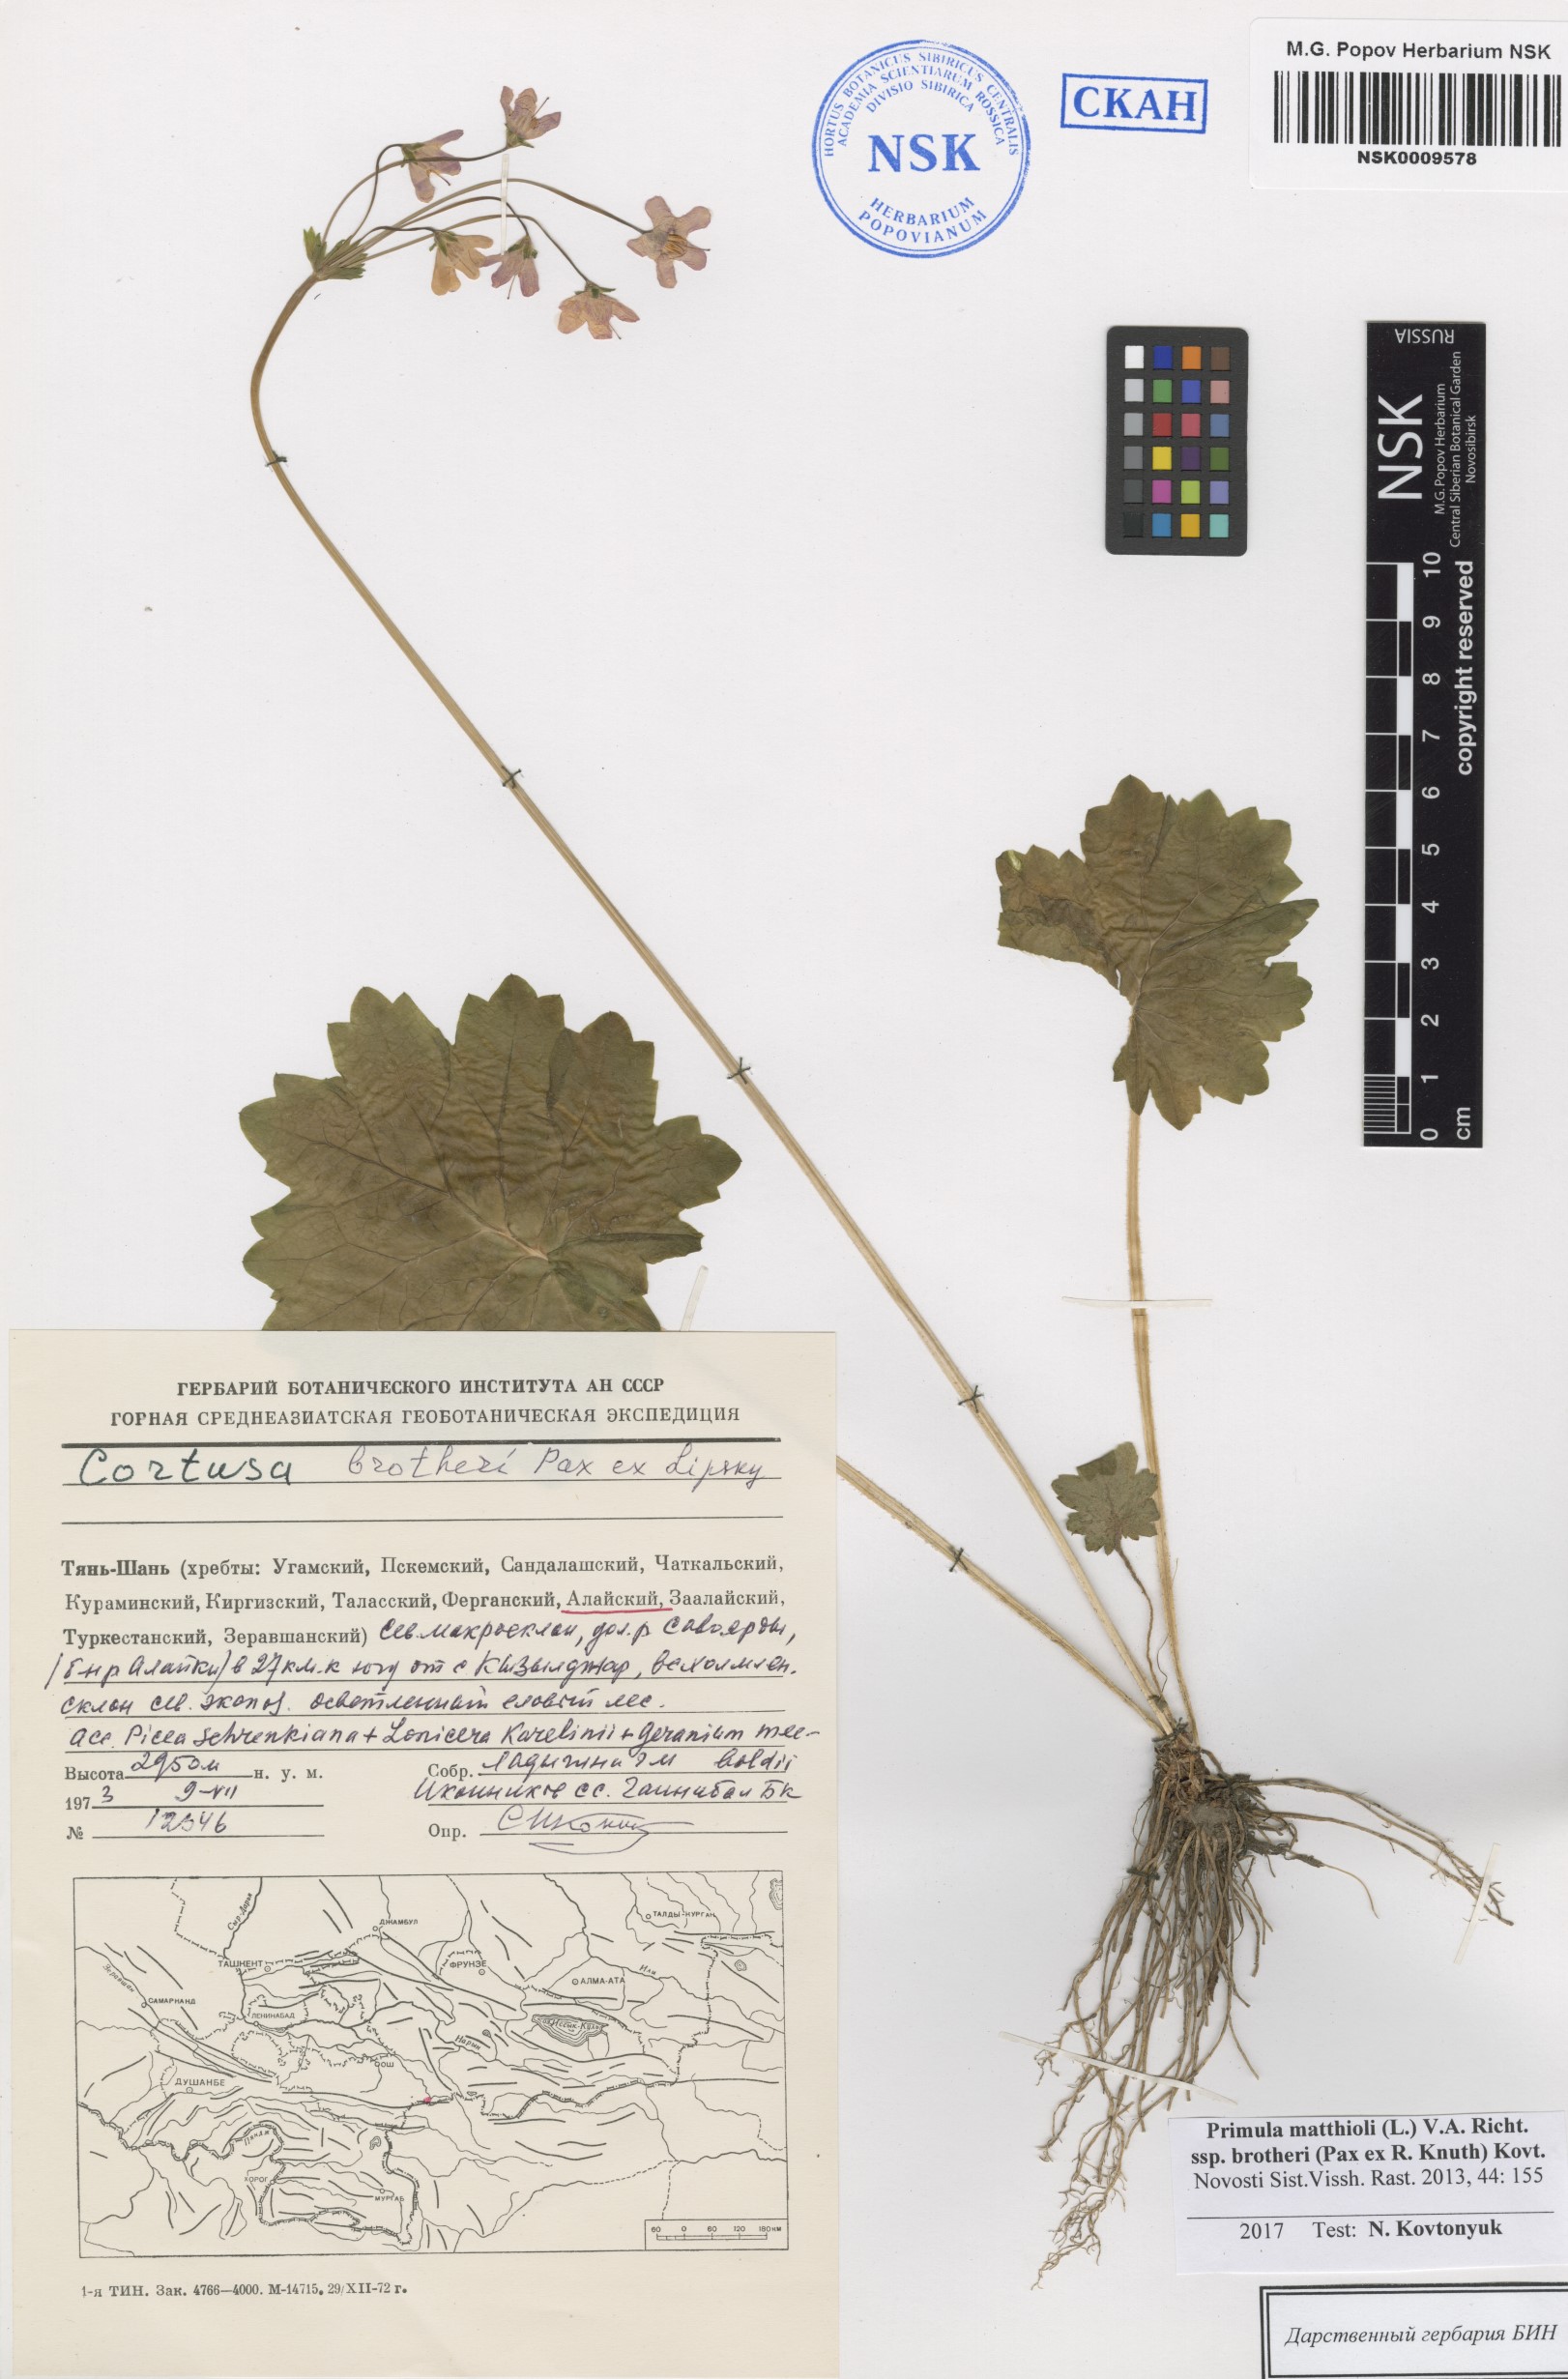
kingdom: Plantae
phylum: Tracheophyta
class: Magnoliopsida
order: Ericales
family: Primulaceae
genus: Primula
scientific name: Primula matthioli
